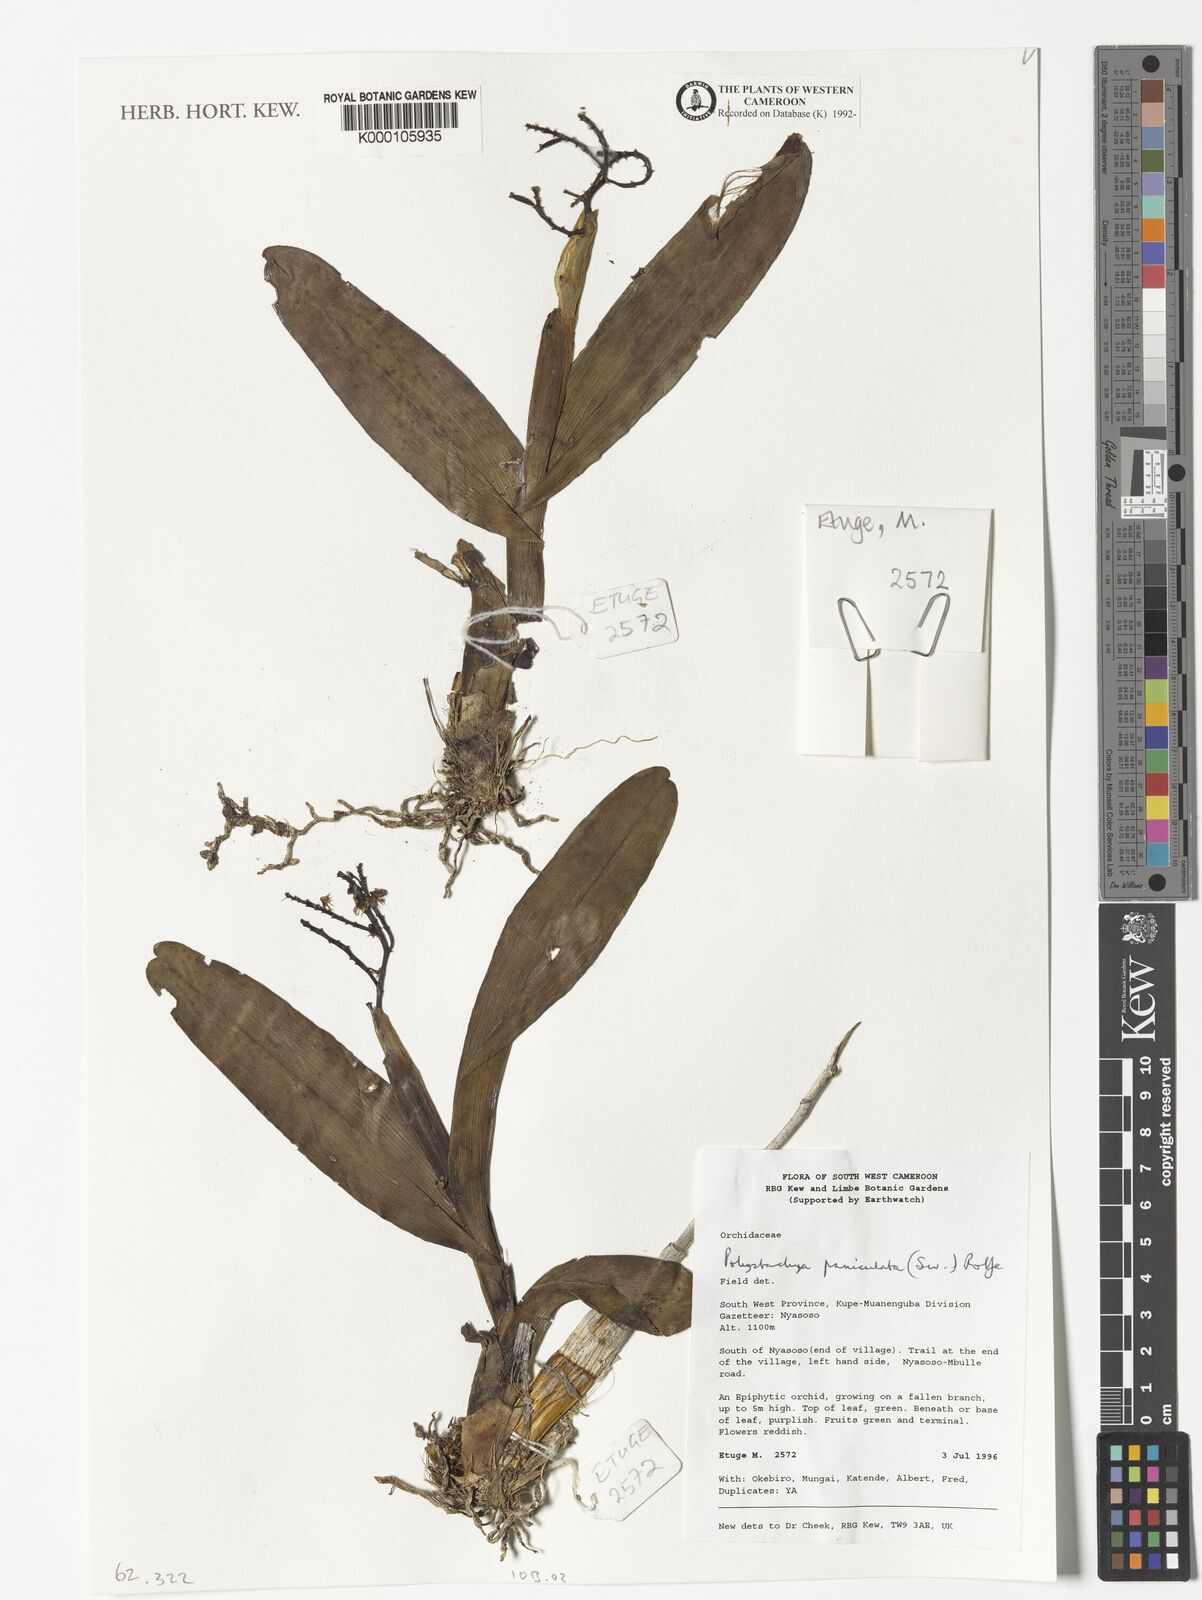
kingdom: Plantae
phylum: Tracheophyta
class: Liliopsida
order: Asparagales
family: Orchidaceae
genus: Polystachya
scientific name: Polystachya paniculata
